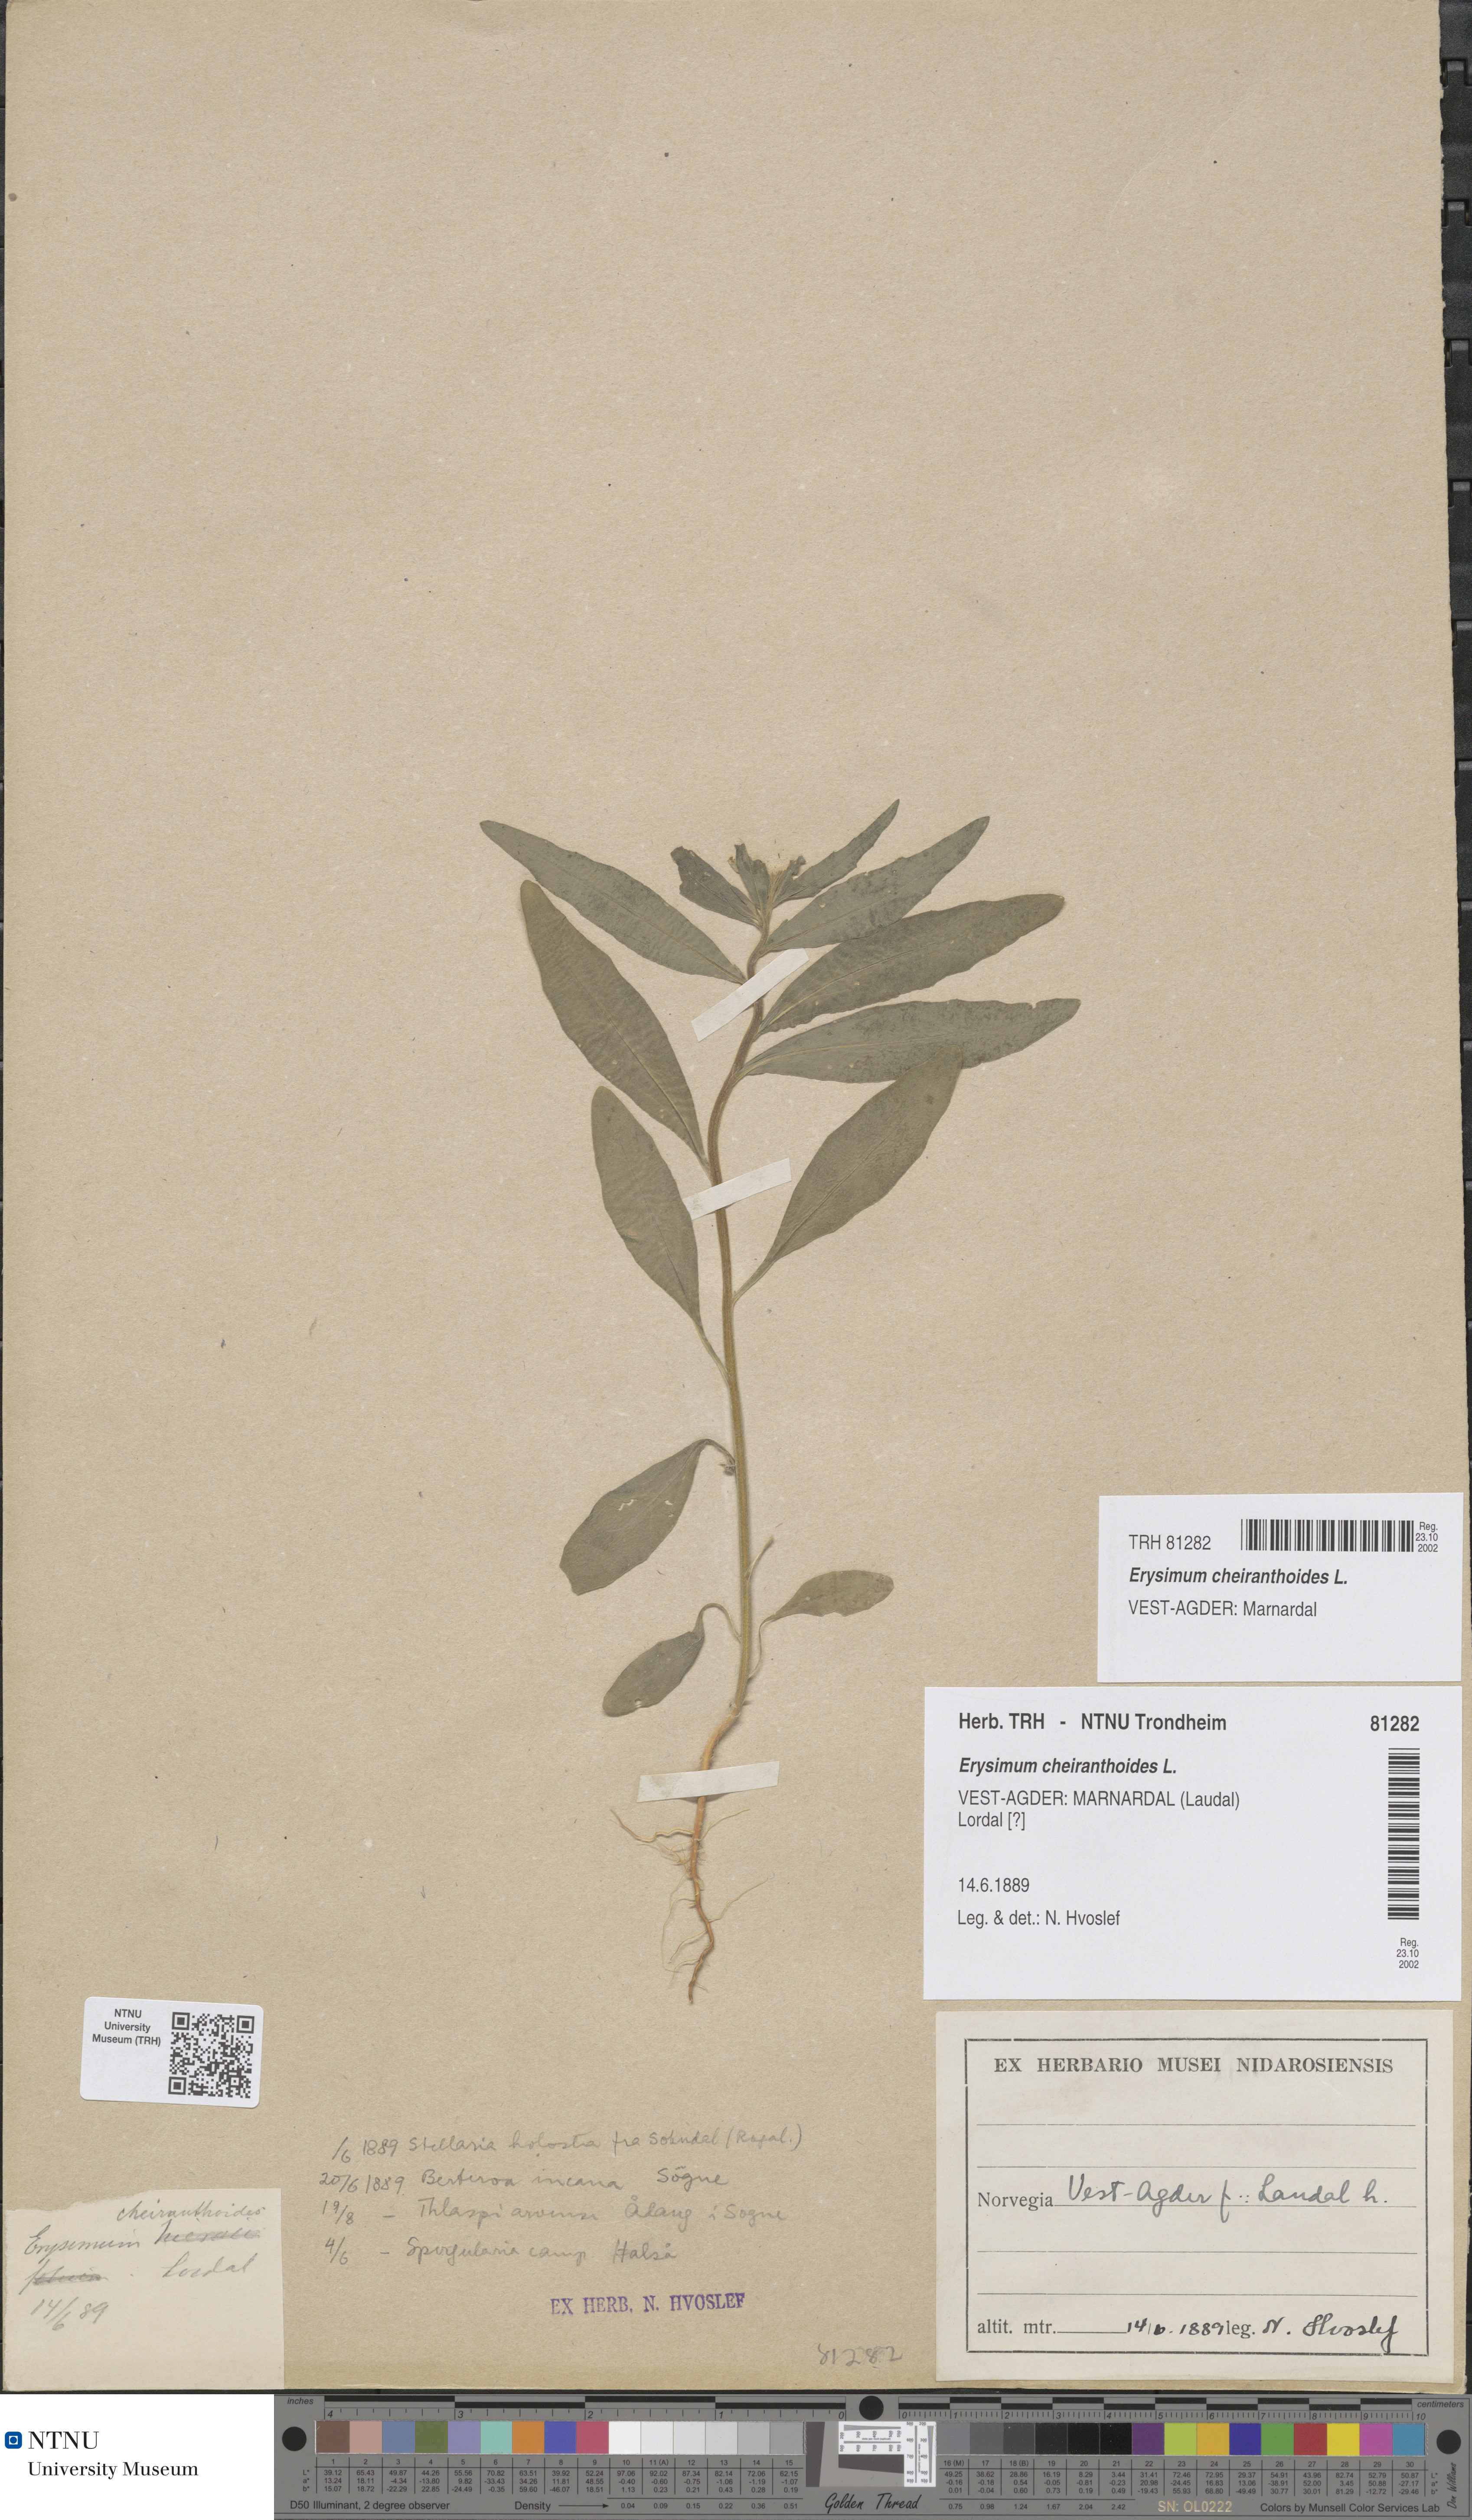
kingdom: Plantae
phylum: Tracheophyta
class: Magnoliopsida
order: Brassicales
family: Brassicaceae
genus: Erysimum
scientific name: Erysimum cheiranthoides
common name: Treacle mustard
